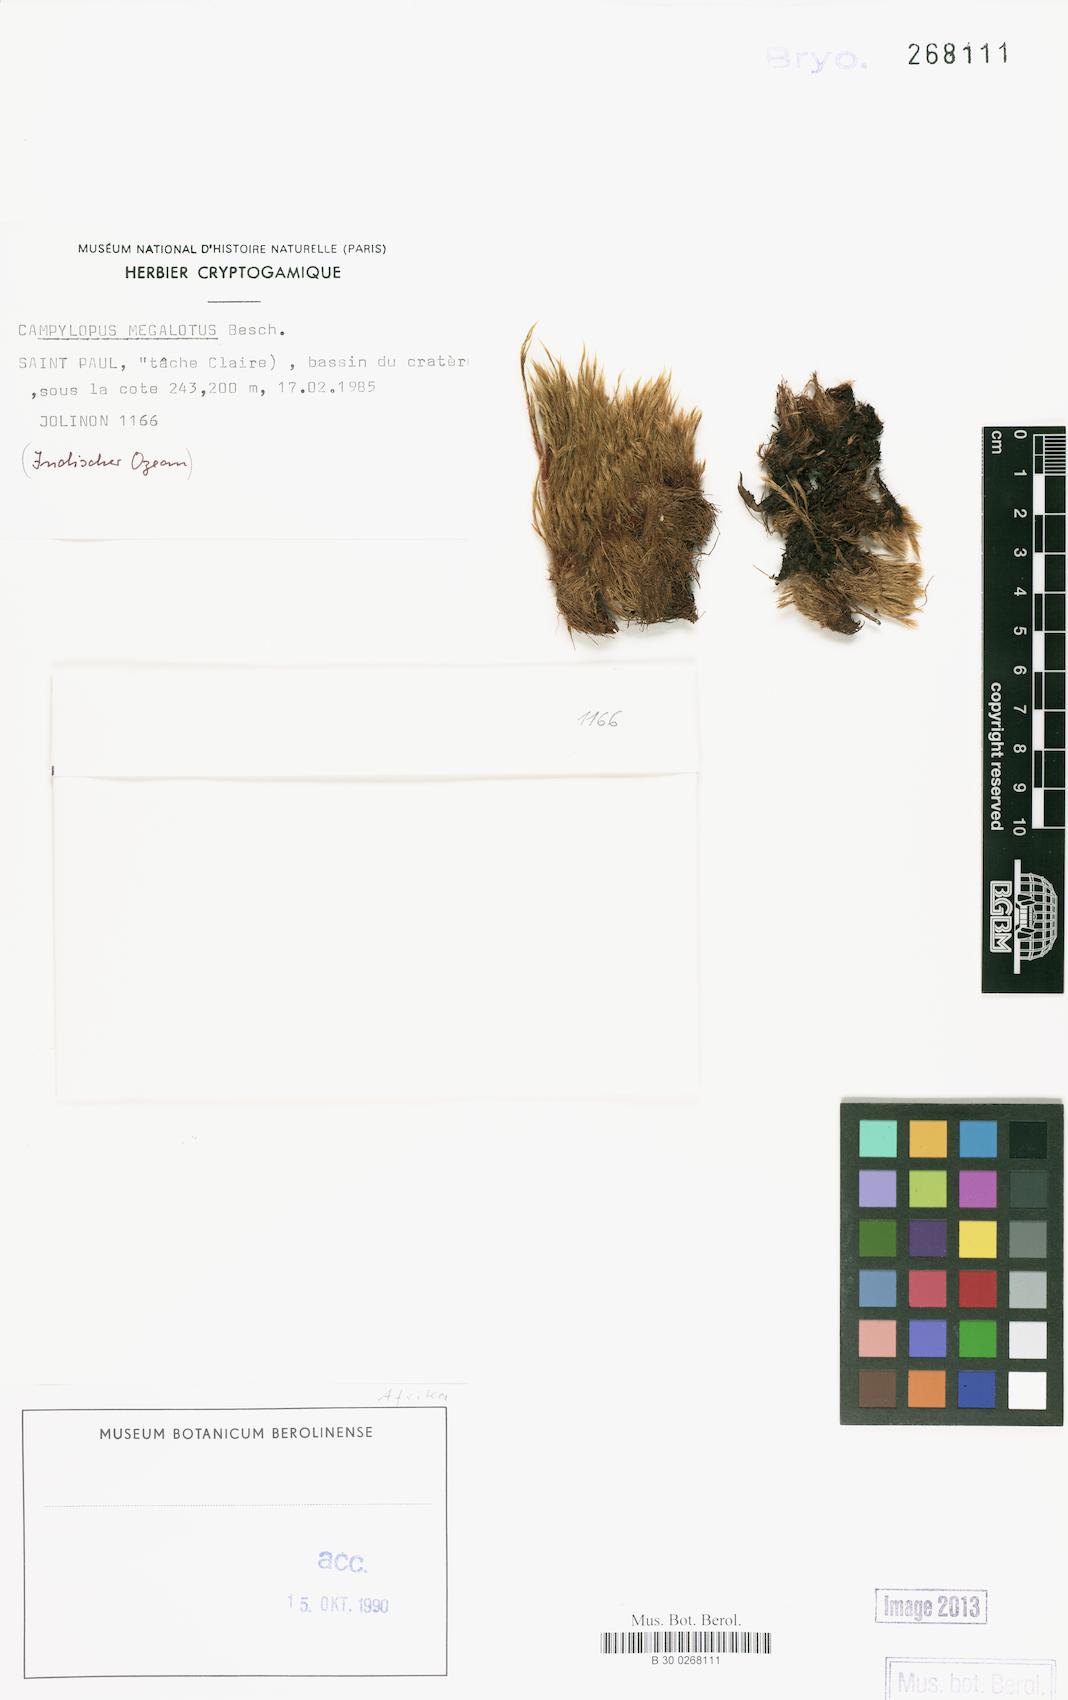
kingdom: Plantae
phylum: Bryophyta
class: Bryopsida
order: Dicranales
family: Leucobryaceae
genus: Campylopus
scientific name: Campylopus megalotus
